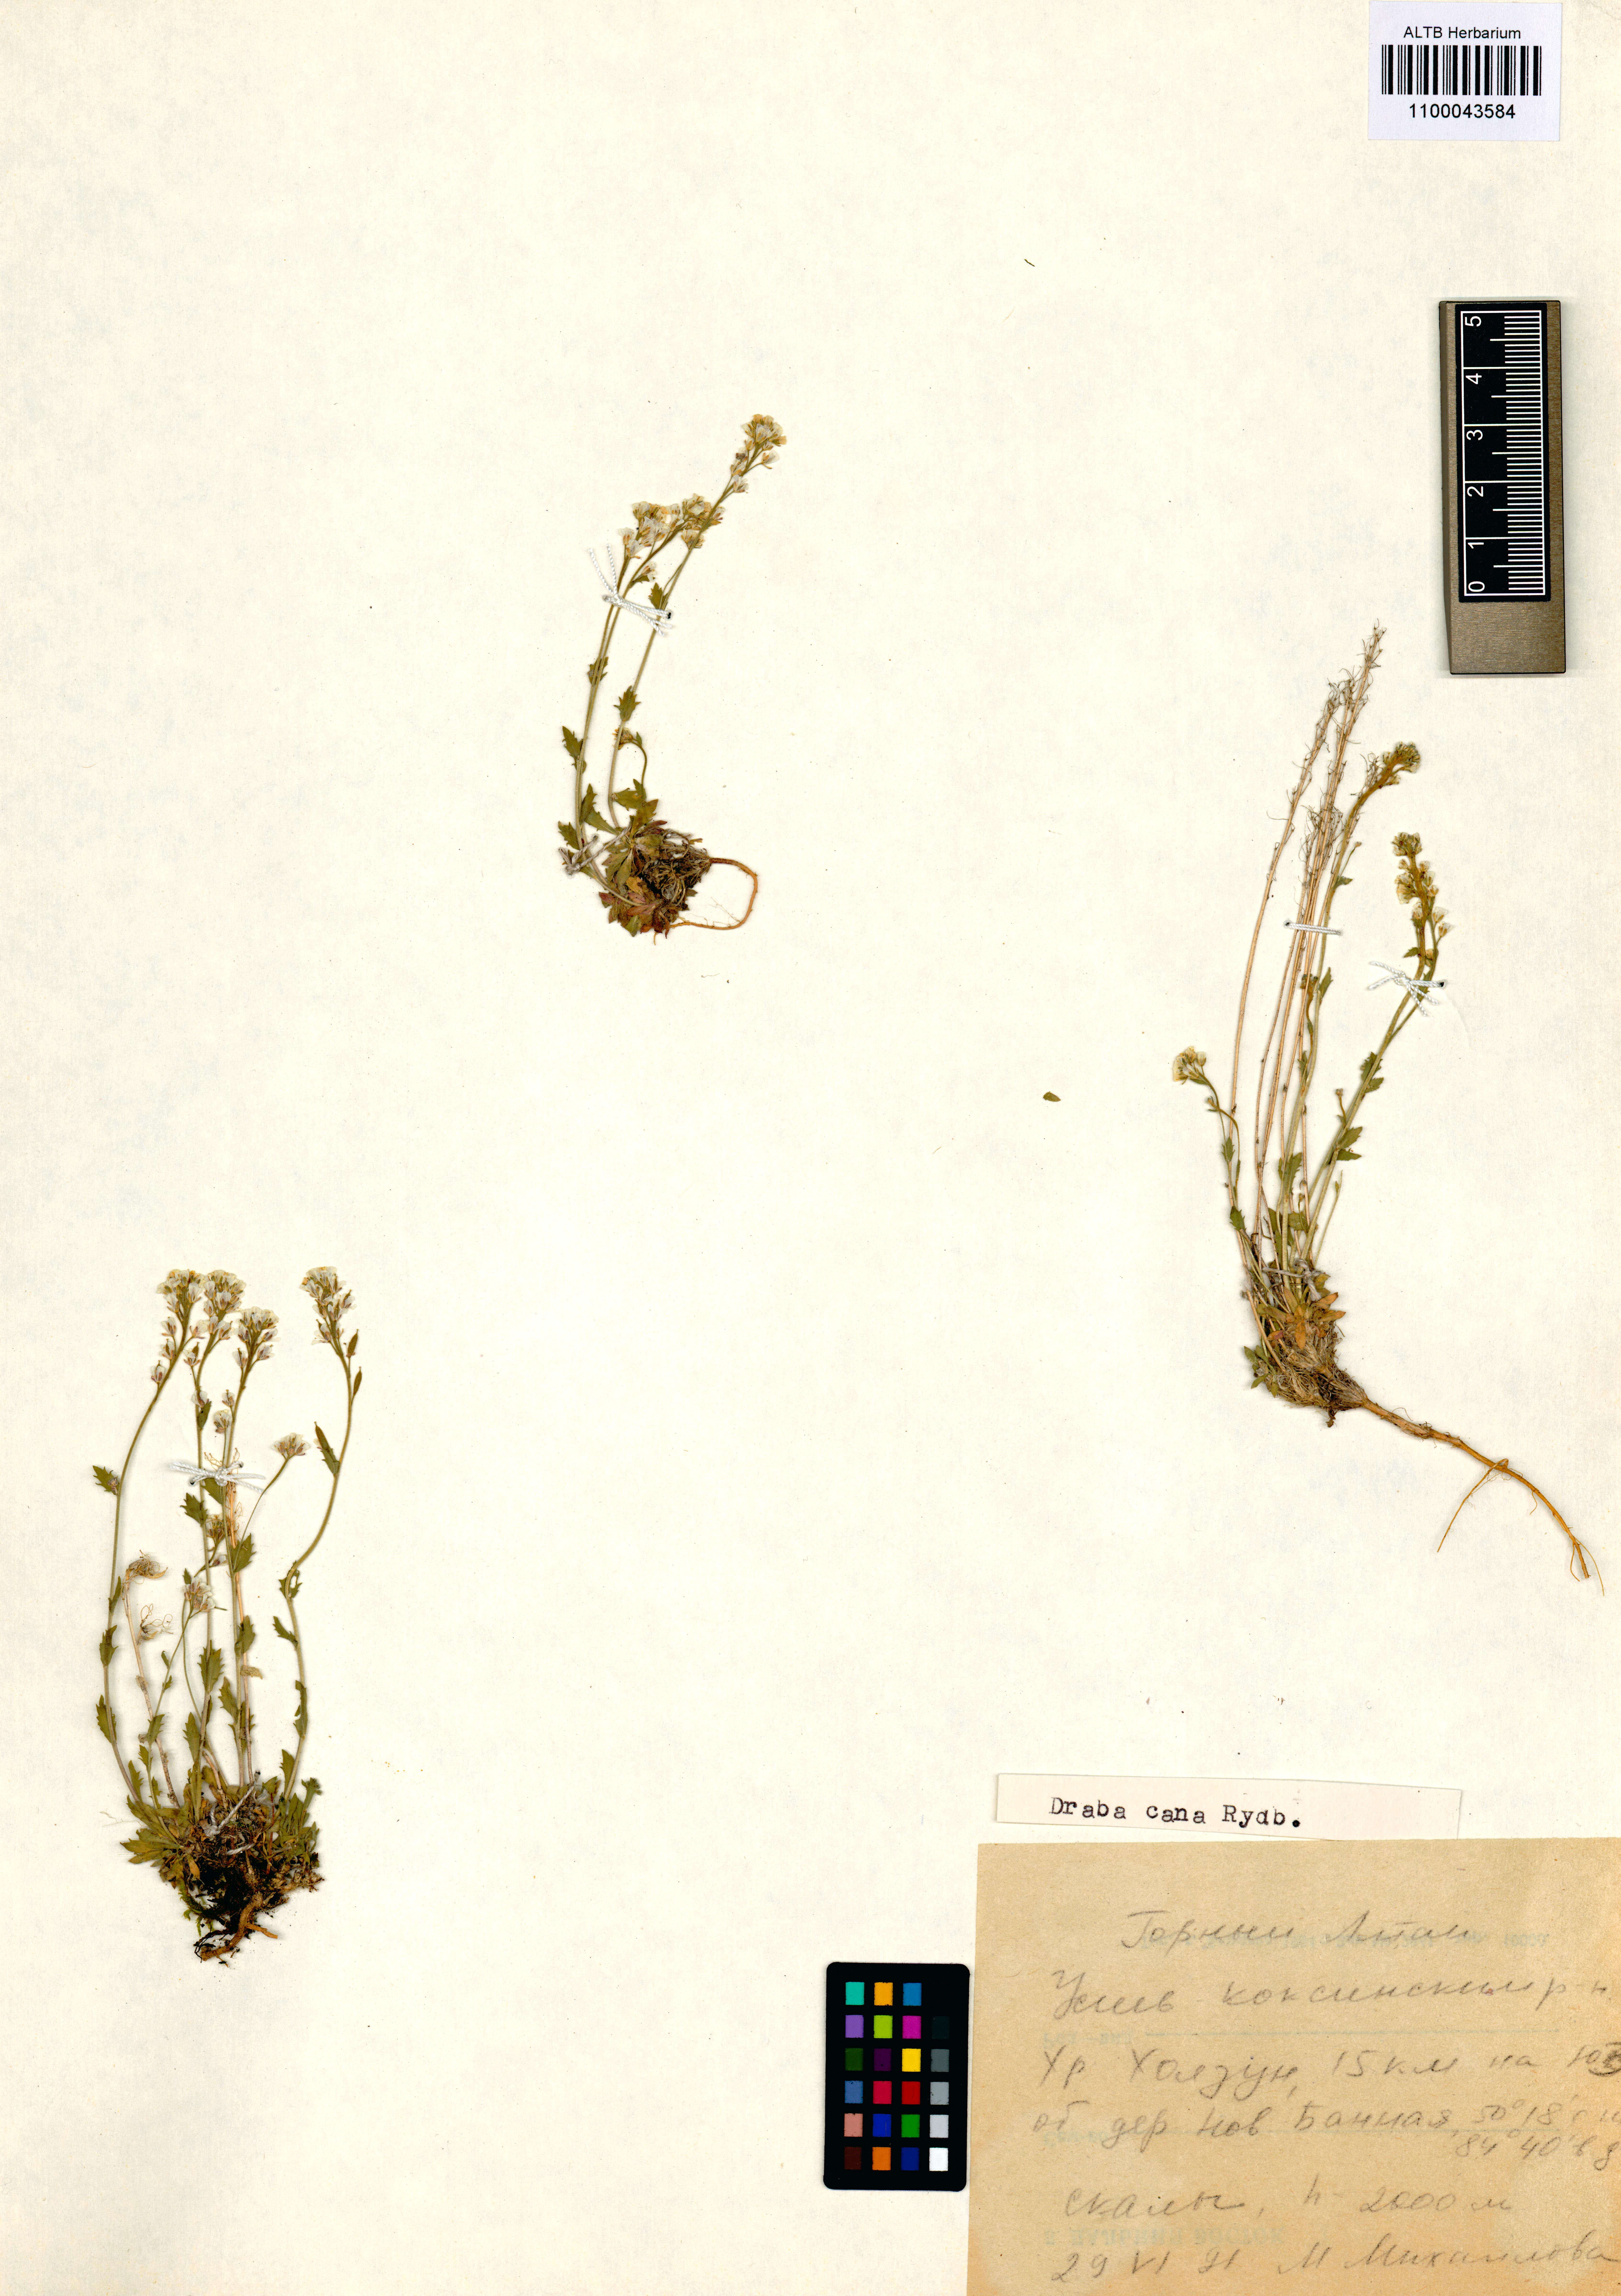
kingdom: Plantae
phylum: Tracheophyta
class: Magnoliopsida
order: Brassicales
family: Brassicaceae
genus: Draba
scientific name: Draba cana
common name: Hoary draba
